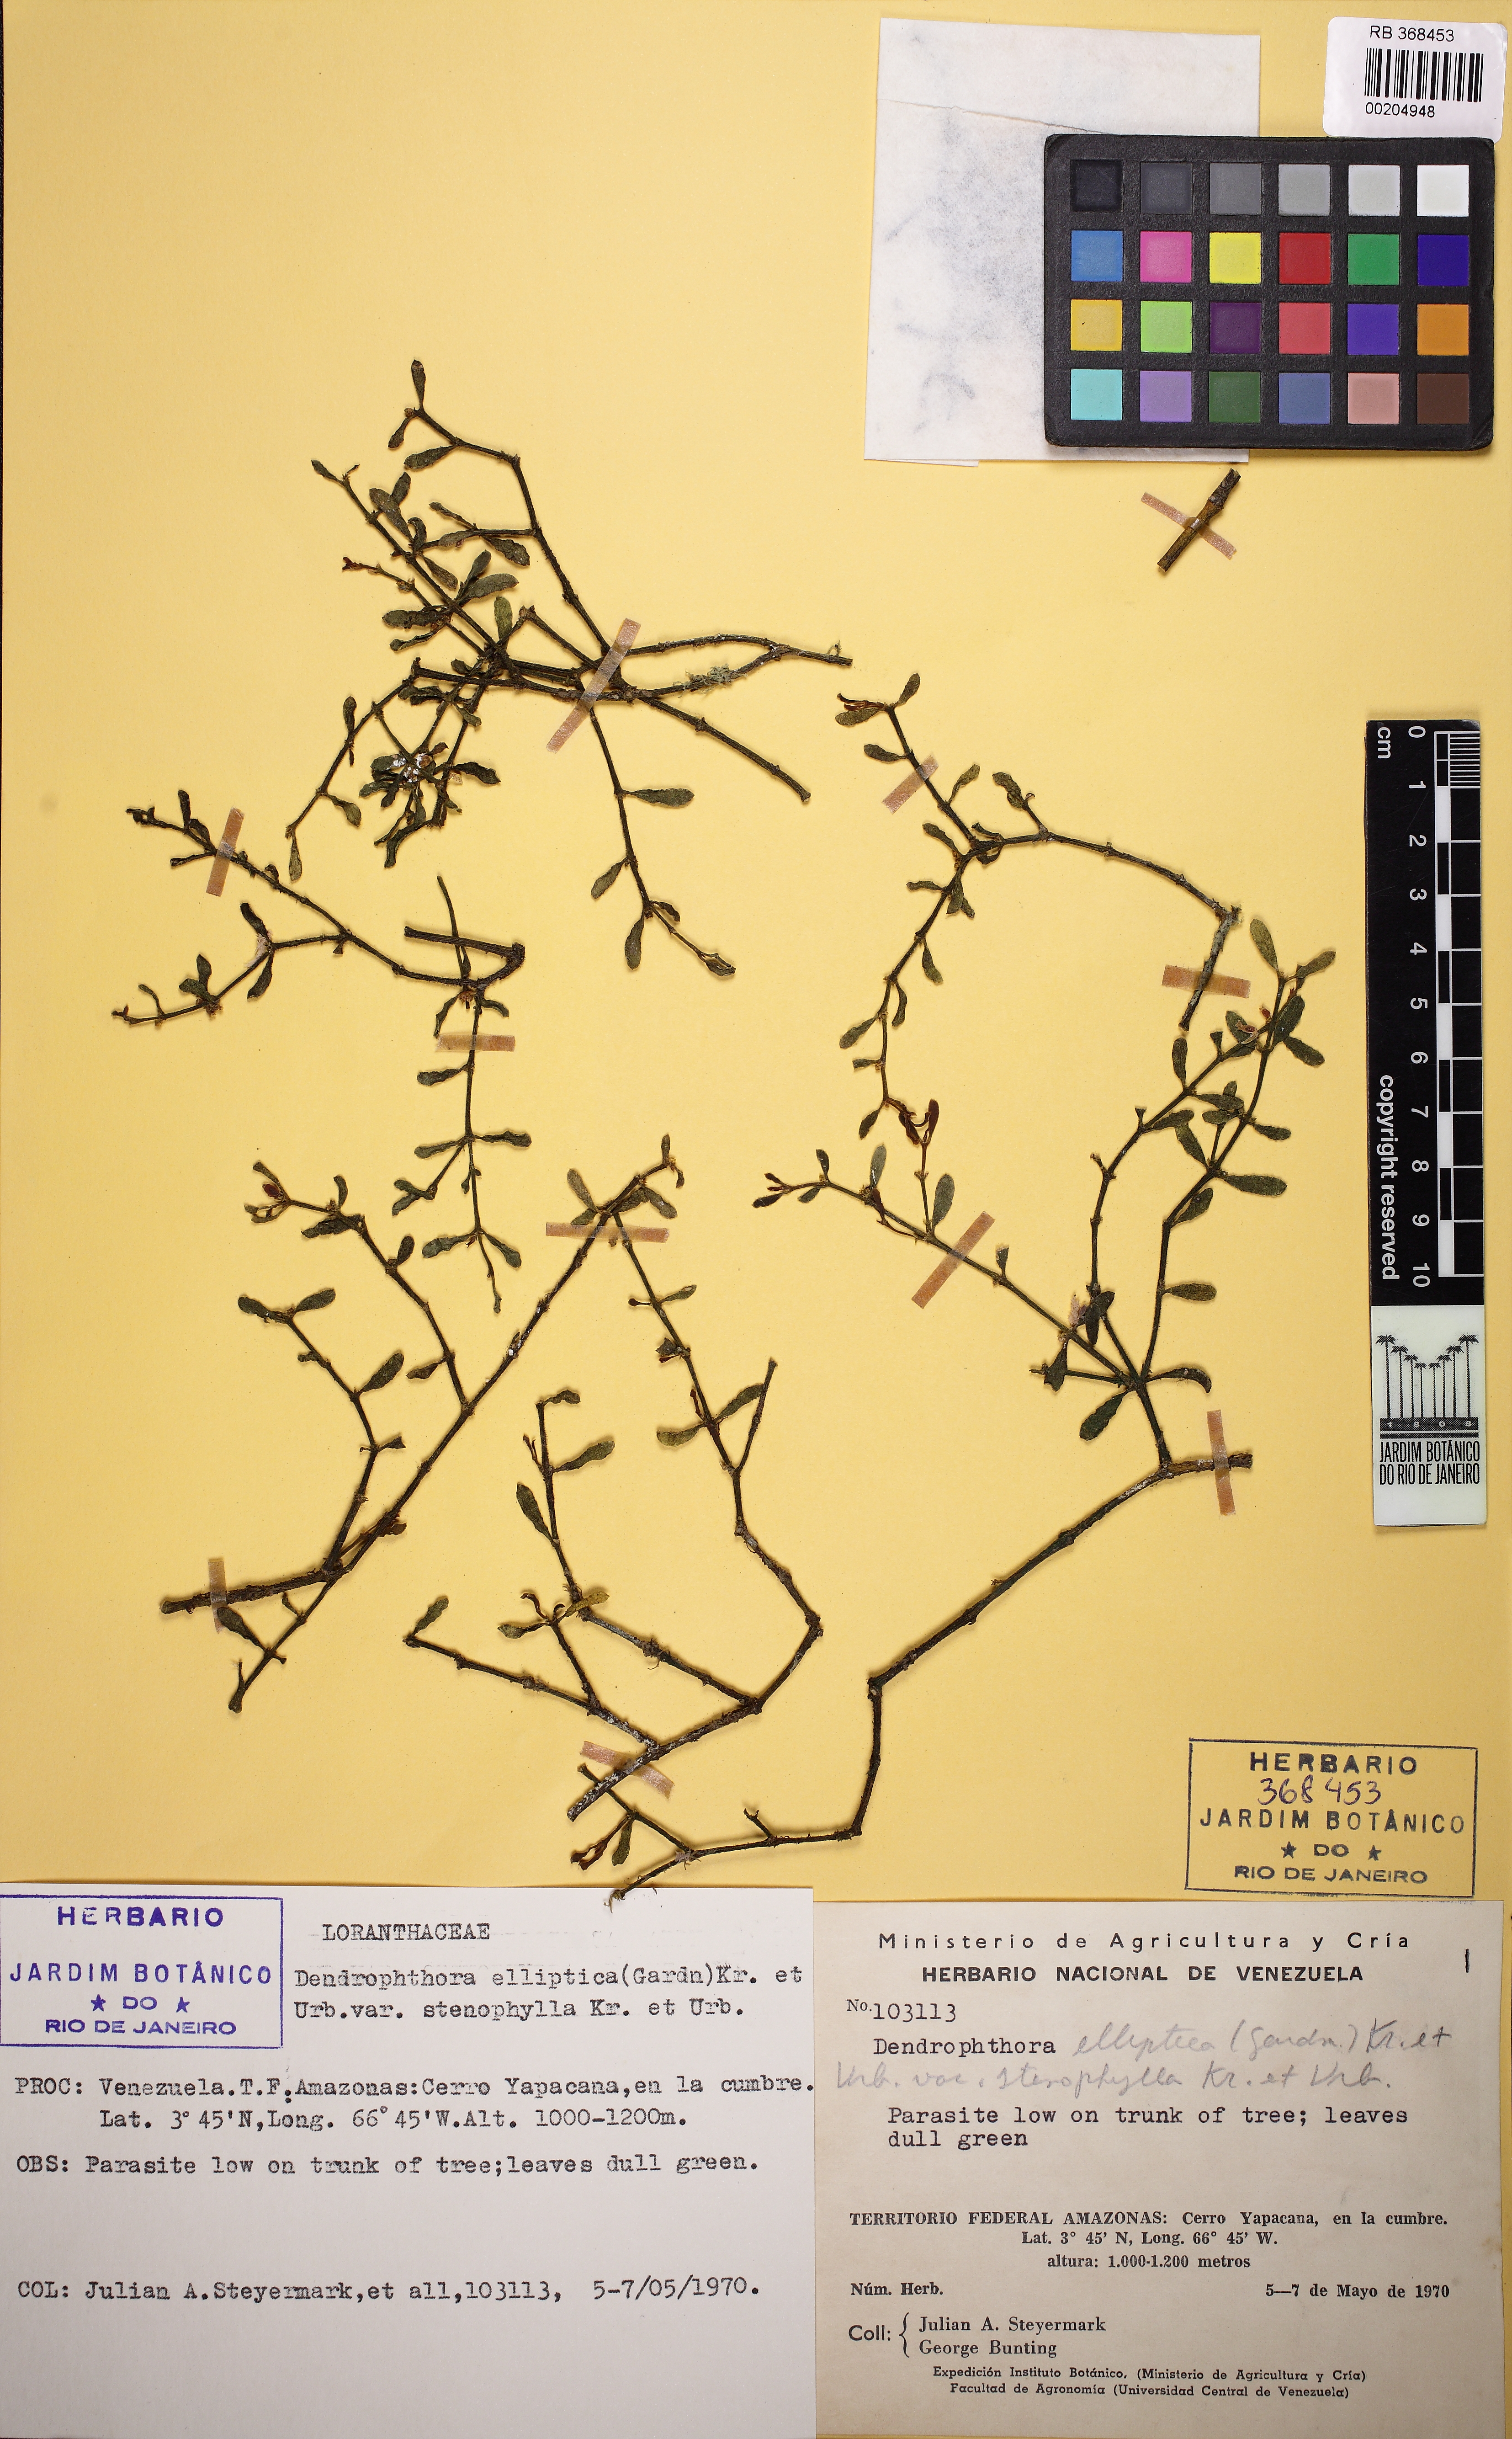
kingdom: Plantae
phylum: Tracheophyta
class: Magnoliopsida
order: Santalales
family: Viscaceae
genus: Dendrophthora
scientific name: Dendrophthora elliptica
